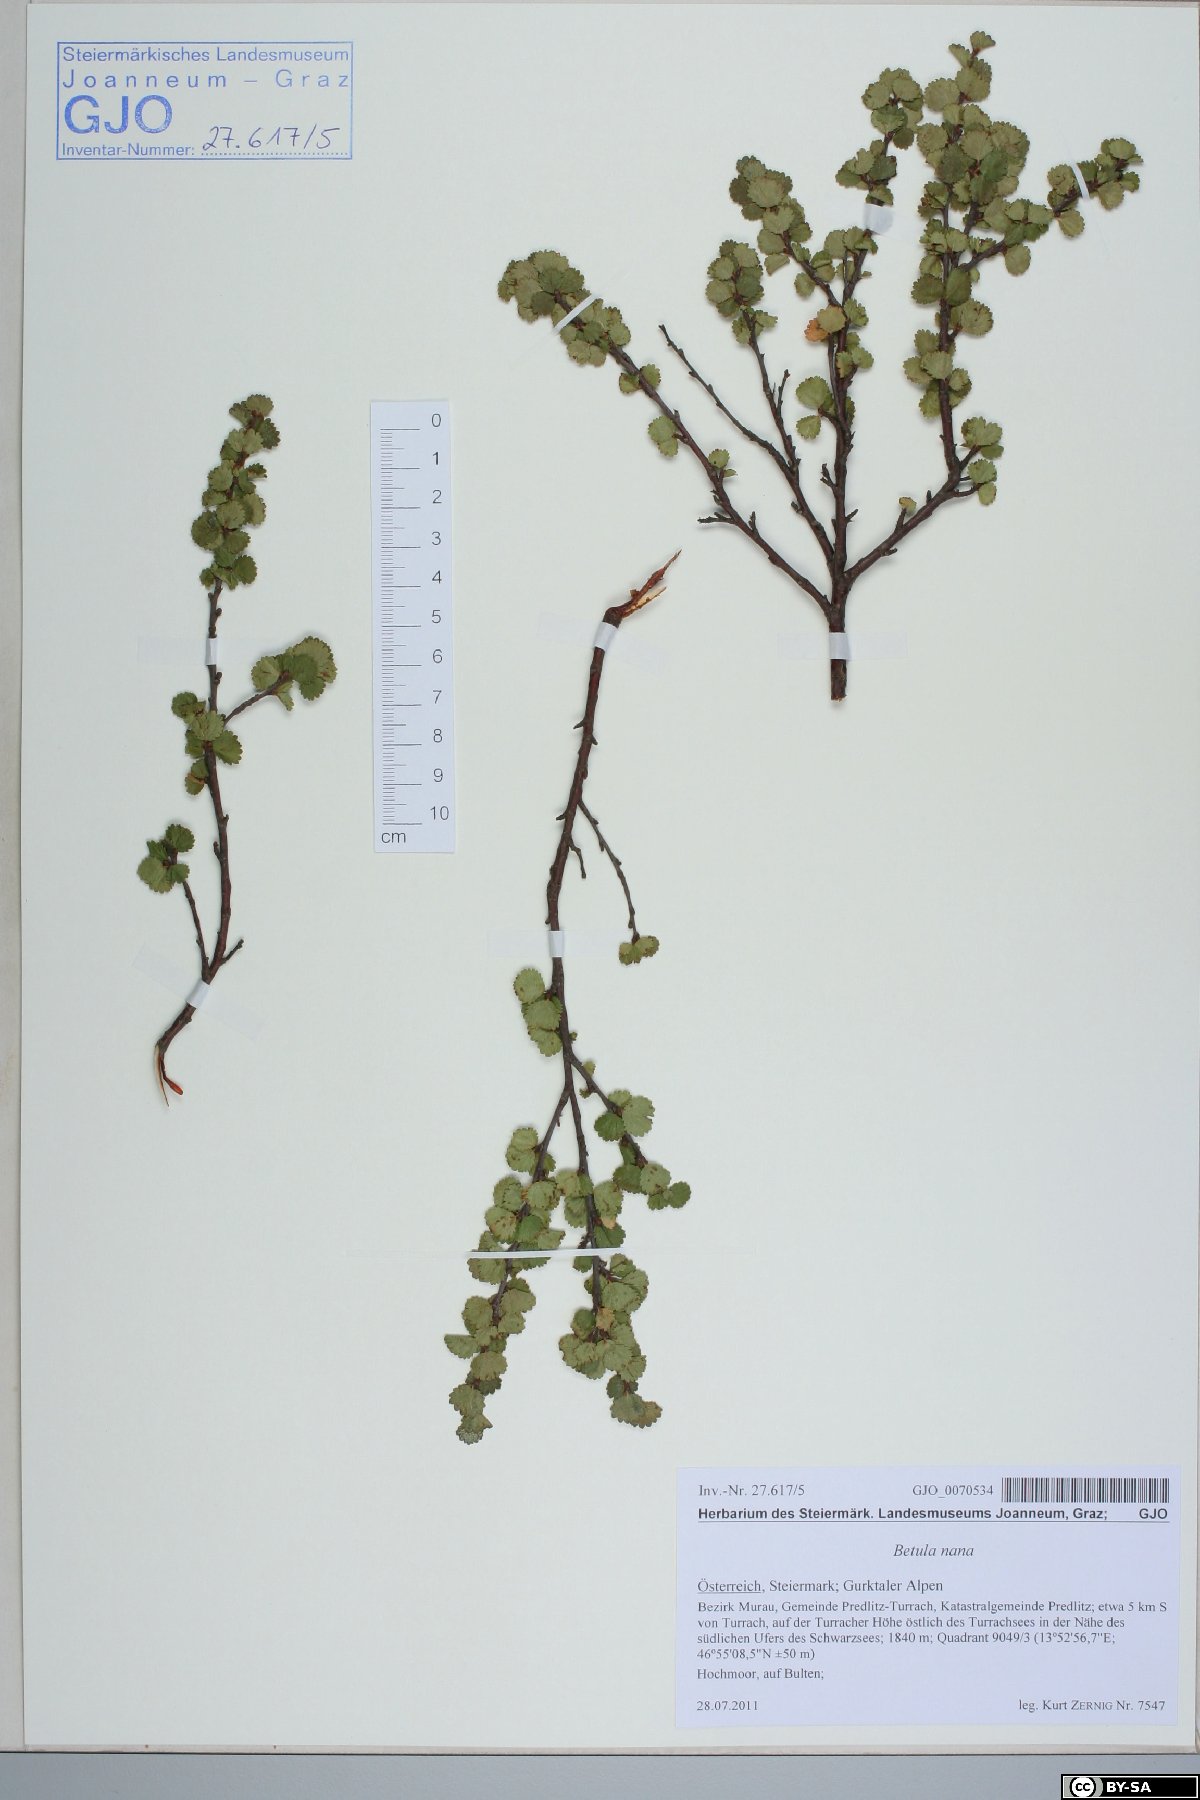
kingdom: Plantae
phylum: Tracheophyta
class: Magnoliopsida
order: Fagales
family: Betulaceae
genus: Betula
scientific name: Betula nana
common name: Arctic dwarf birch
